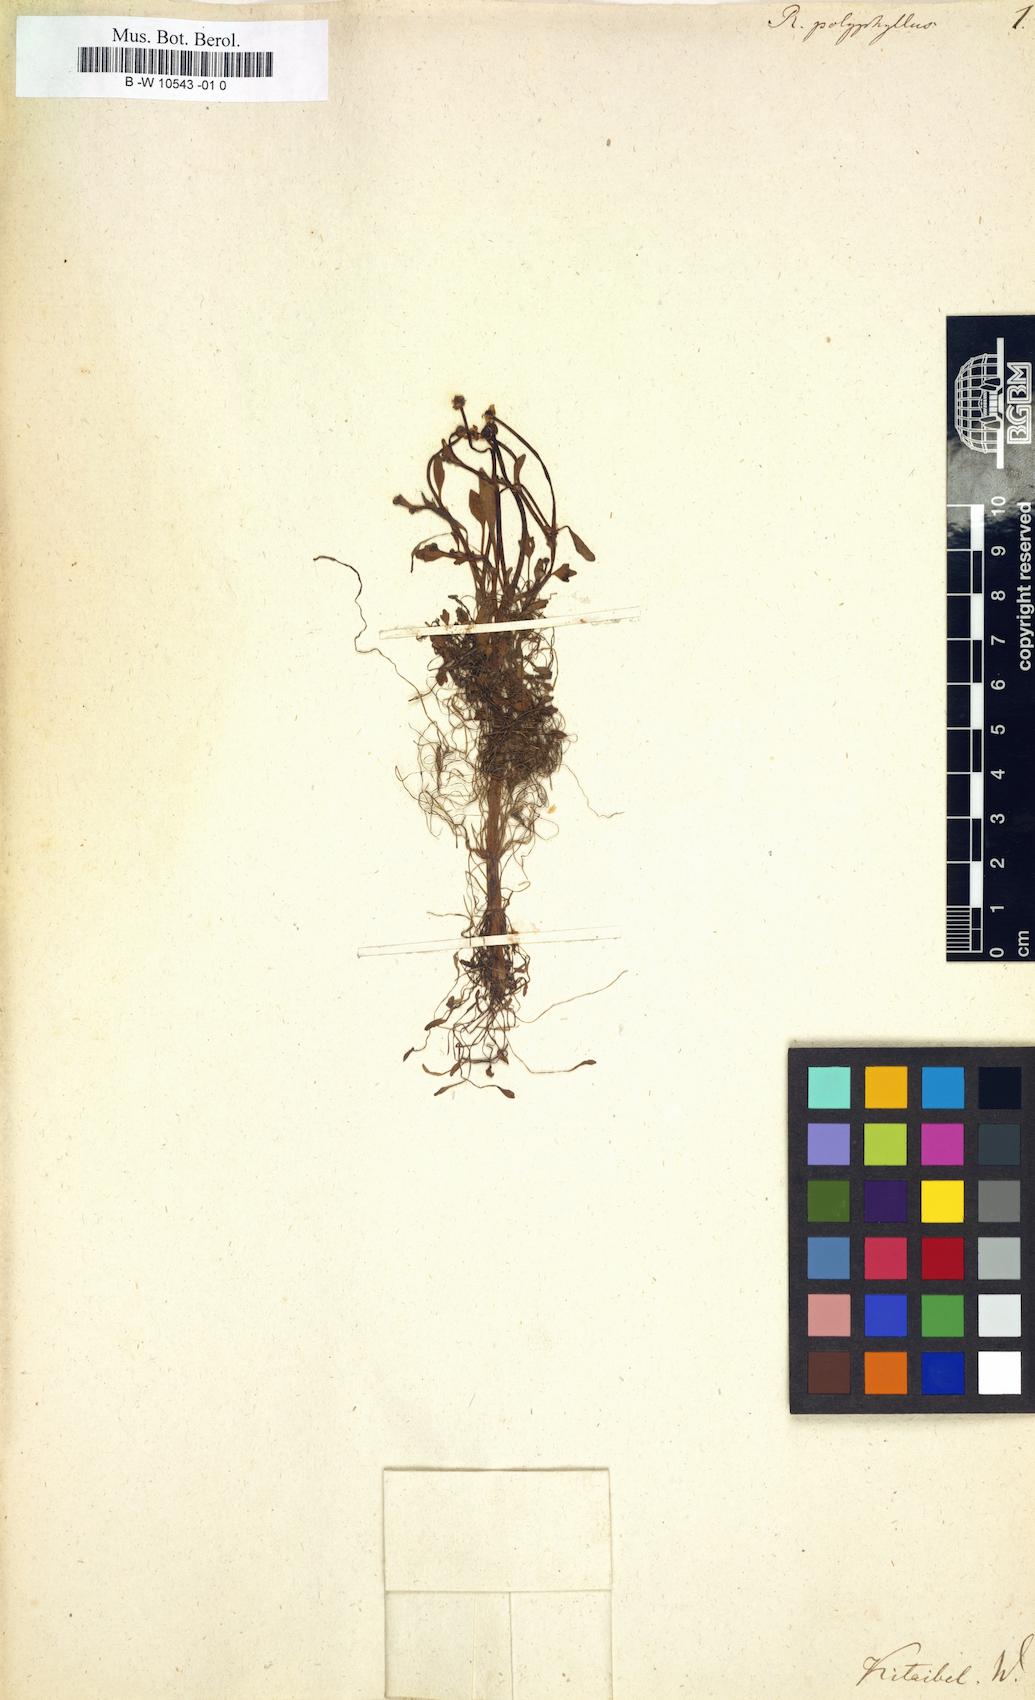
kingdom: Plantae
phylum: Tracheophyta
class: Magnoliopsida
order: Ranunculales
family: Ranunculaceae
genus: Ranunculus
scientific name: Ranunculus polyphyllus
